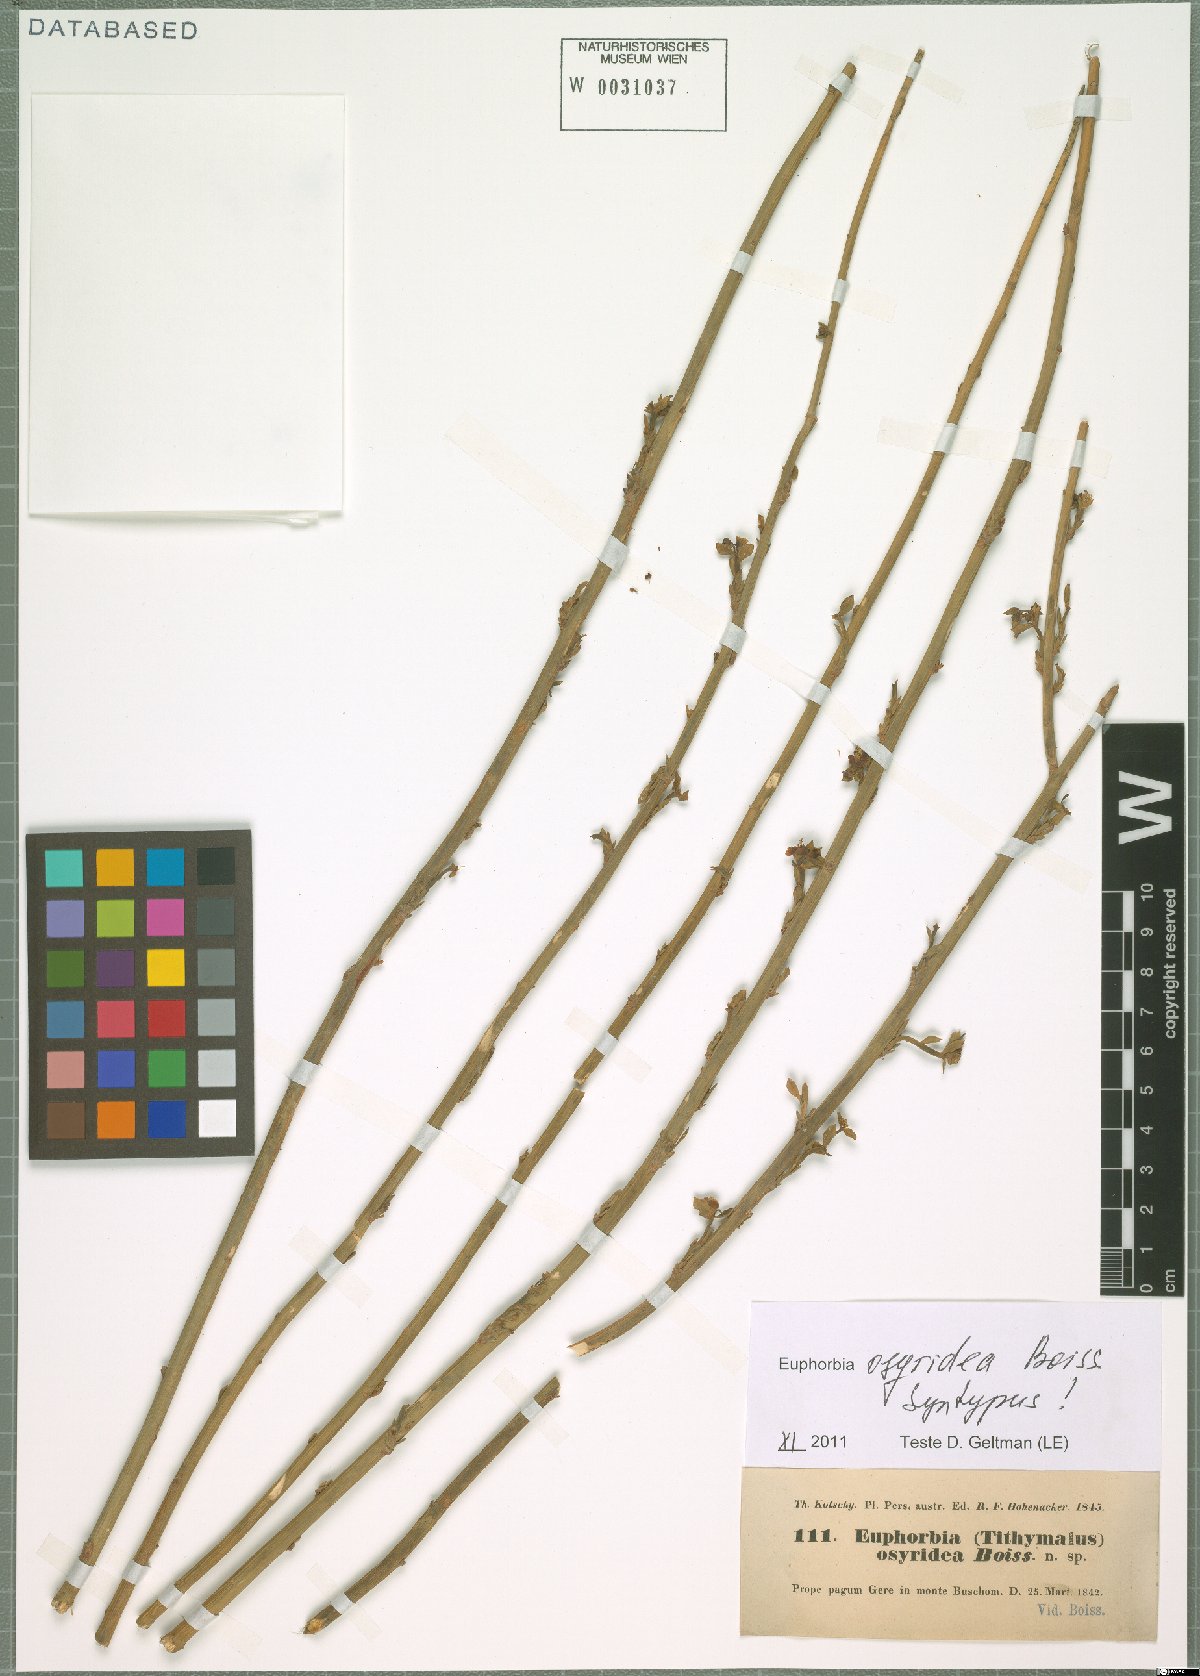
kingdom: Plantae
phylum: Tracheophyta
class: Magnoliopsida
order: Malpighiales
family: Euphorbiaceae
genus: Euphorbia
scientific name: Euphorbia osyridea
